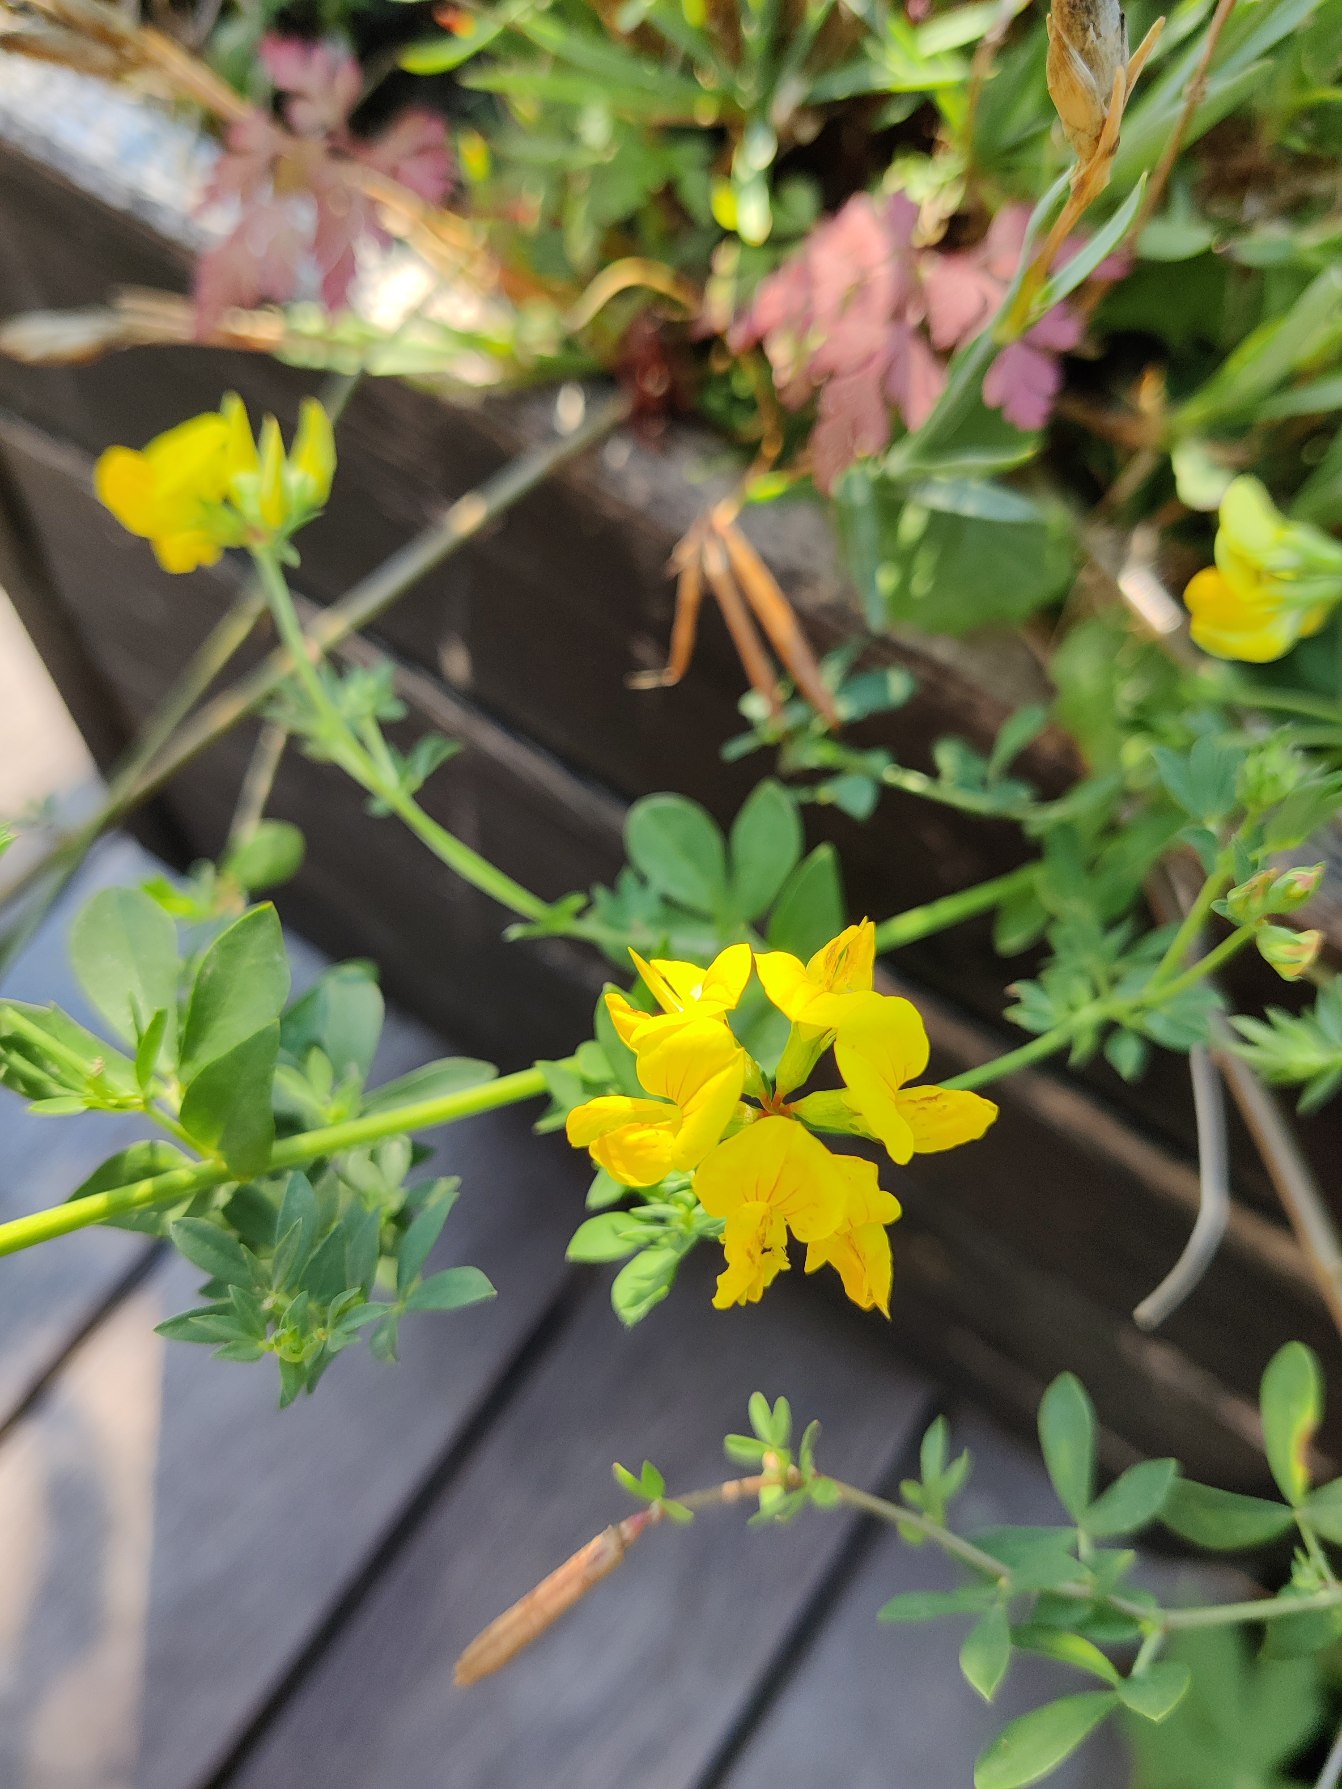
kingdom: Plantae
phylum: Tracheophyta
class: Magnoliopsida
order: Fabales
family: Fabaceae
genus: Lotus
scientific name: Lotus corniculatus
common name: Almindelig kællingetand
